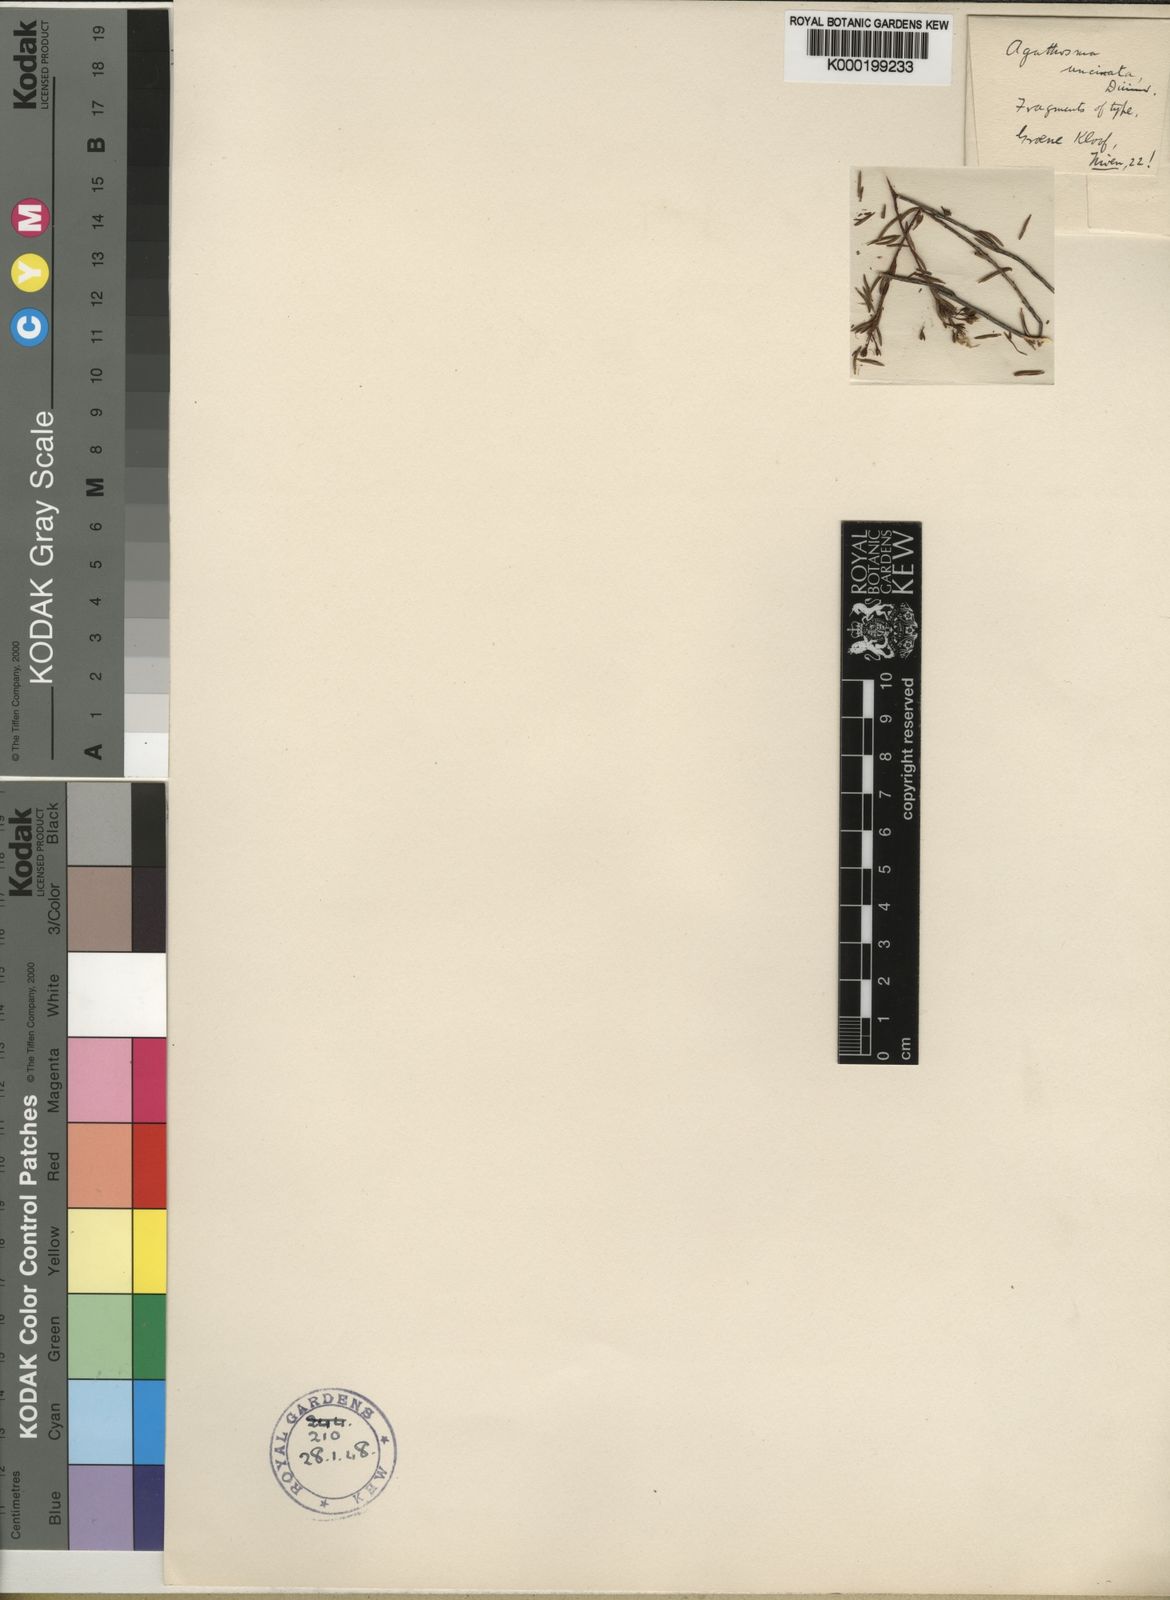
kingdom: Plantae
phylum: Tracheophyta
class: Magnoliopsida
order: Sapindales
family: Rutaceae
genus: Agathosma
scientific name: Agathosma bifida
